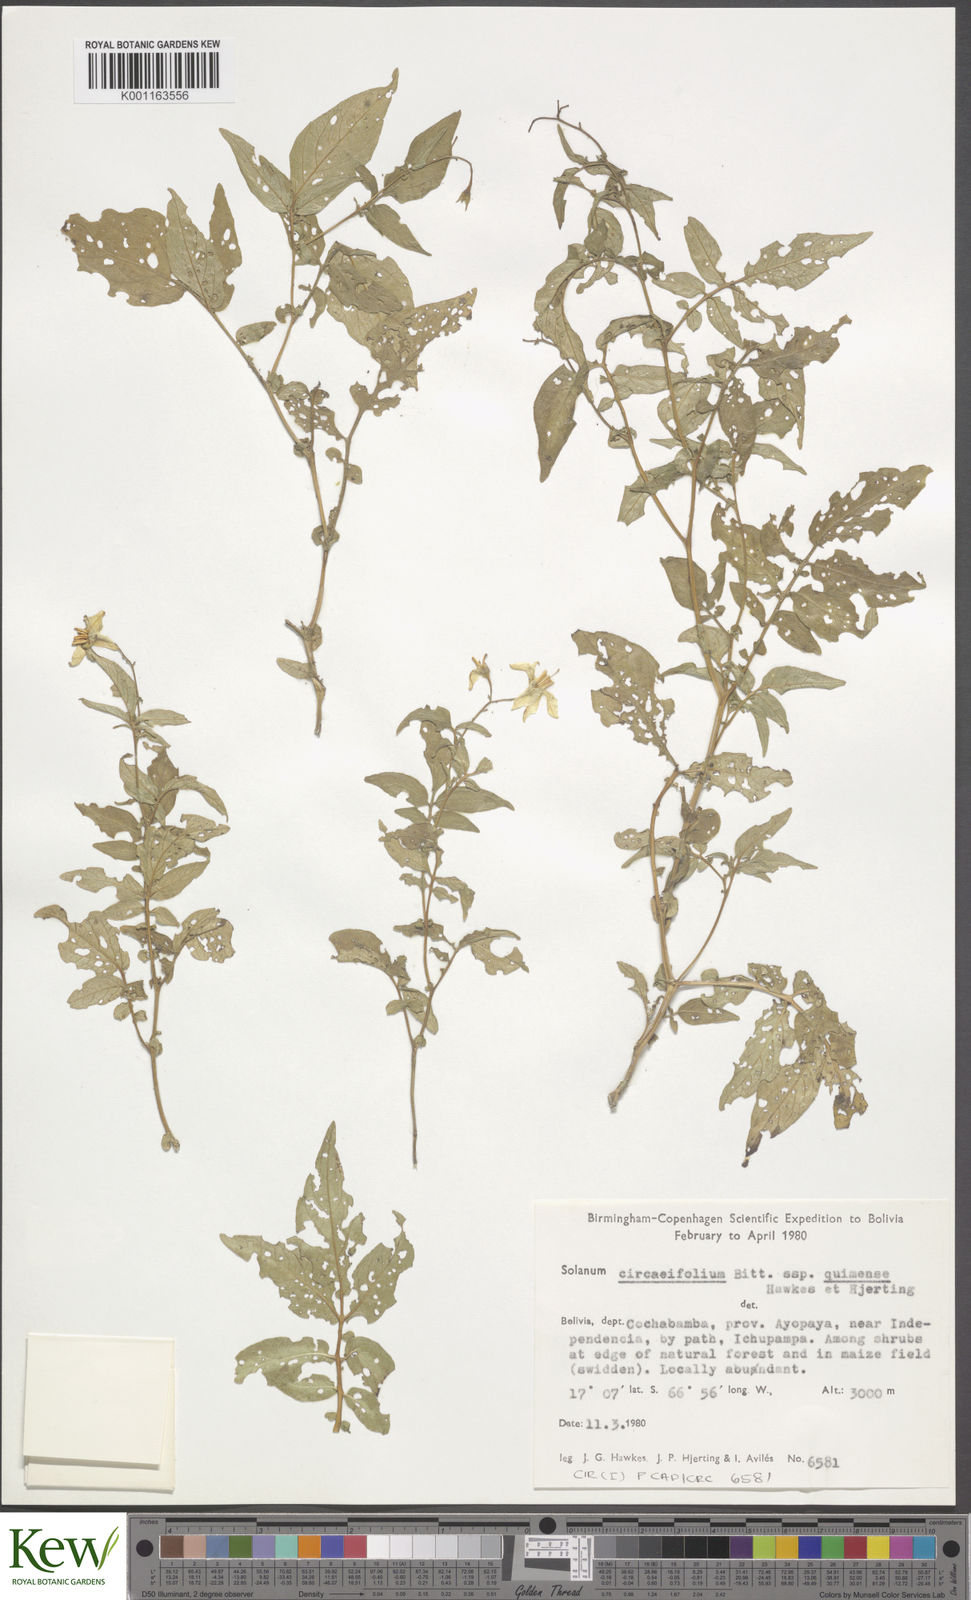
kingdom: Plantae
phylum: Tracheophyta
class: Magnoliopsida
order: Solanales
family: Solanaceae
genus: Solanum
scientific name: Solanum stipuloideum
